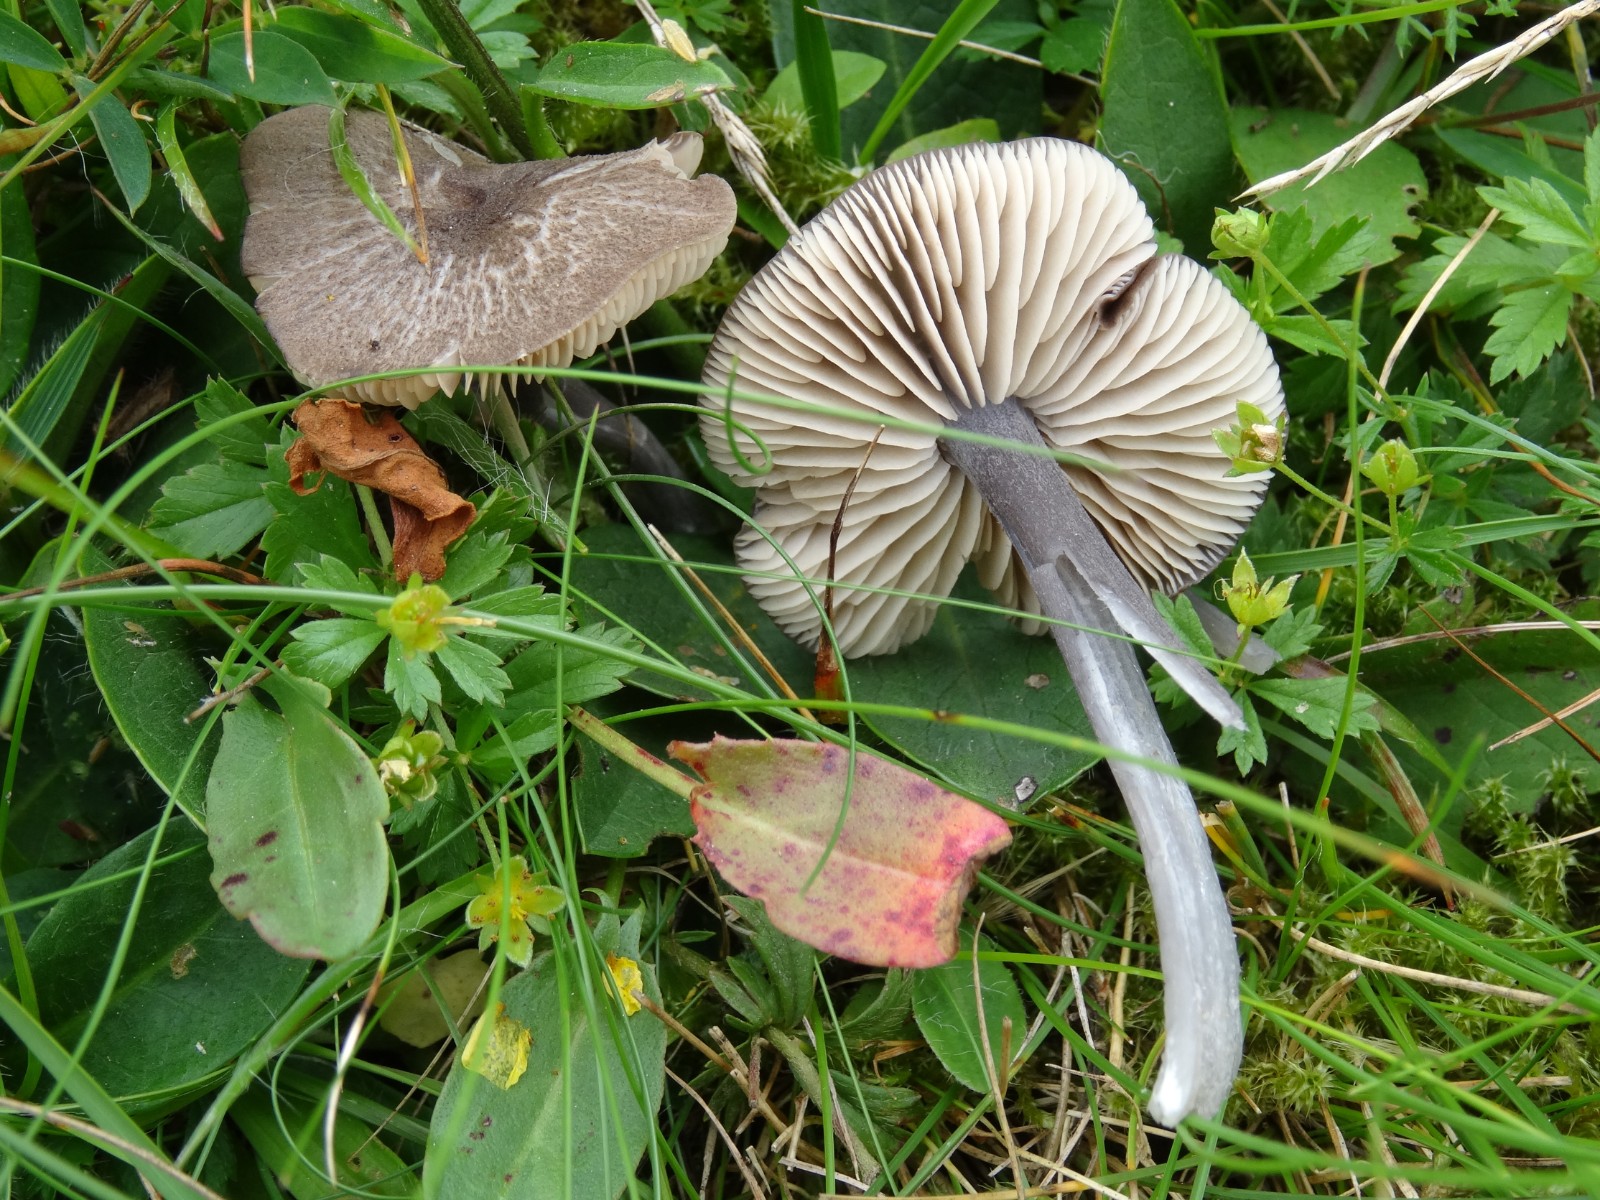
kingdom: Fungi
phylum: Basidiomycota
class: Agaricomycetes
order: Agaricales
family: Entolomataceae
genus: Entoloma
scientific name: Entoloma griseocyaneum
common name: gråblå rødblad
